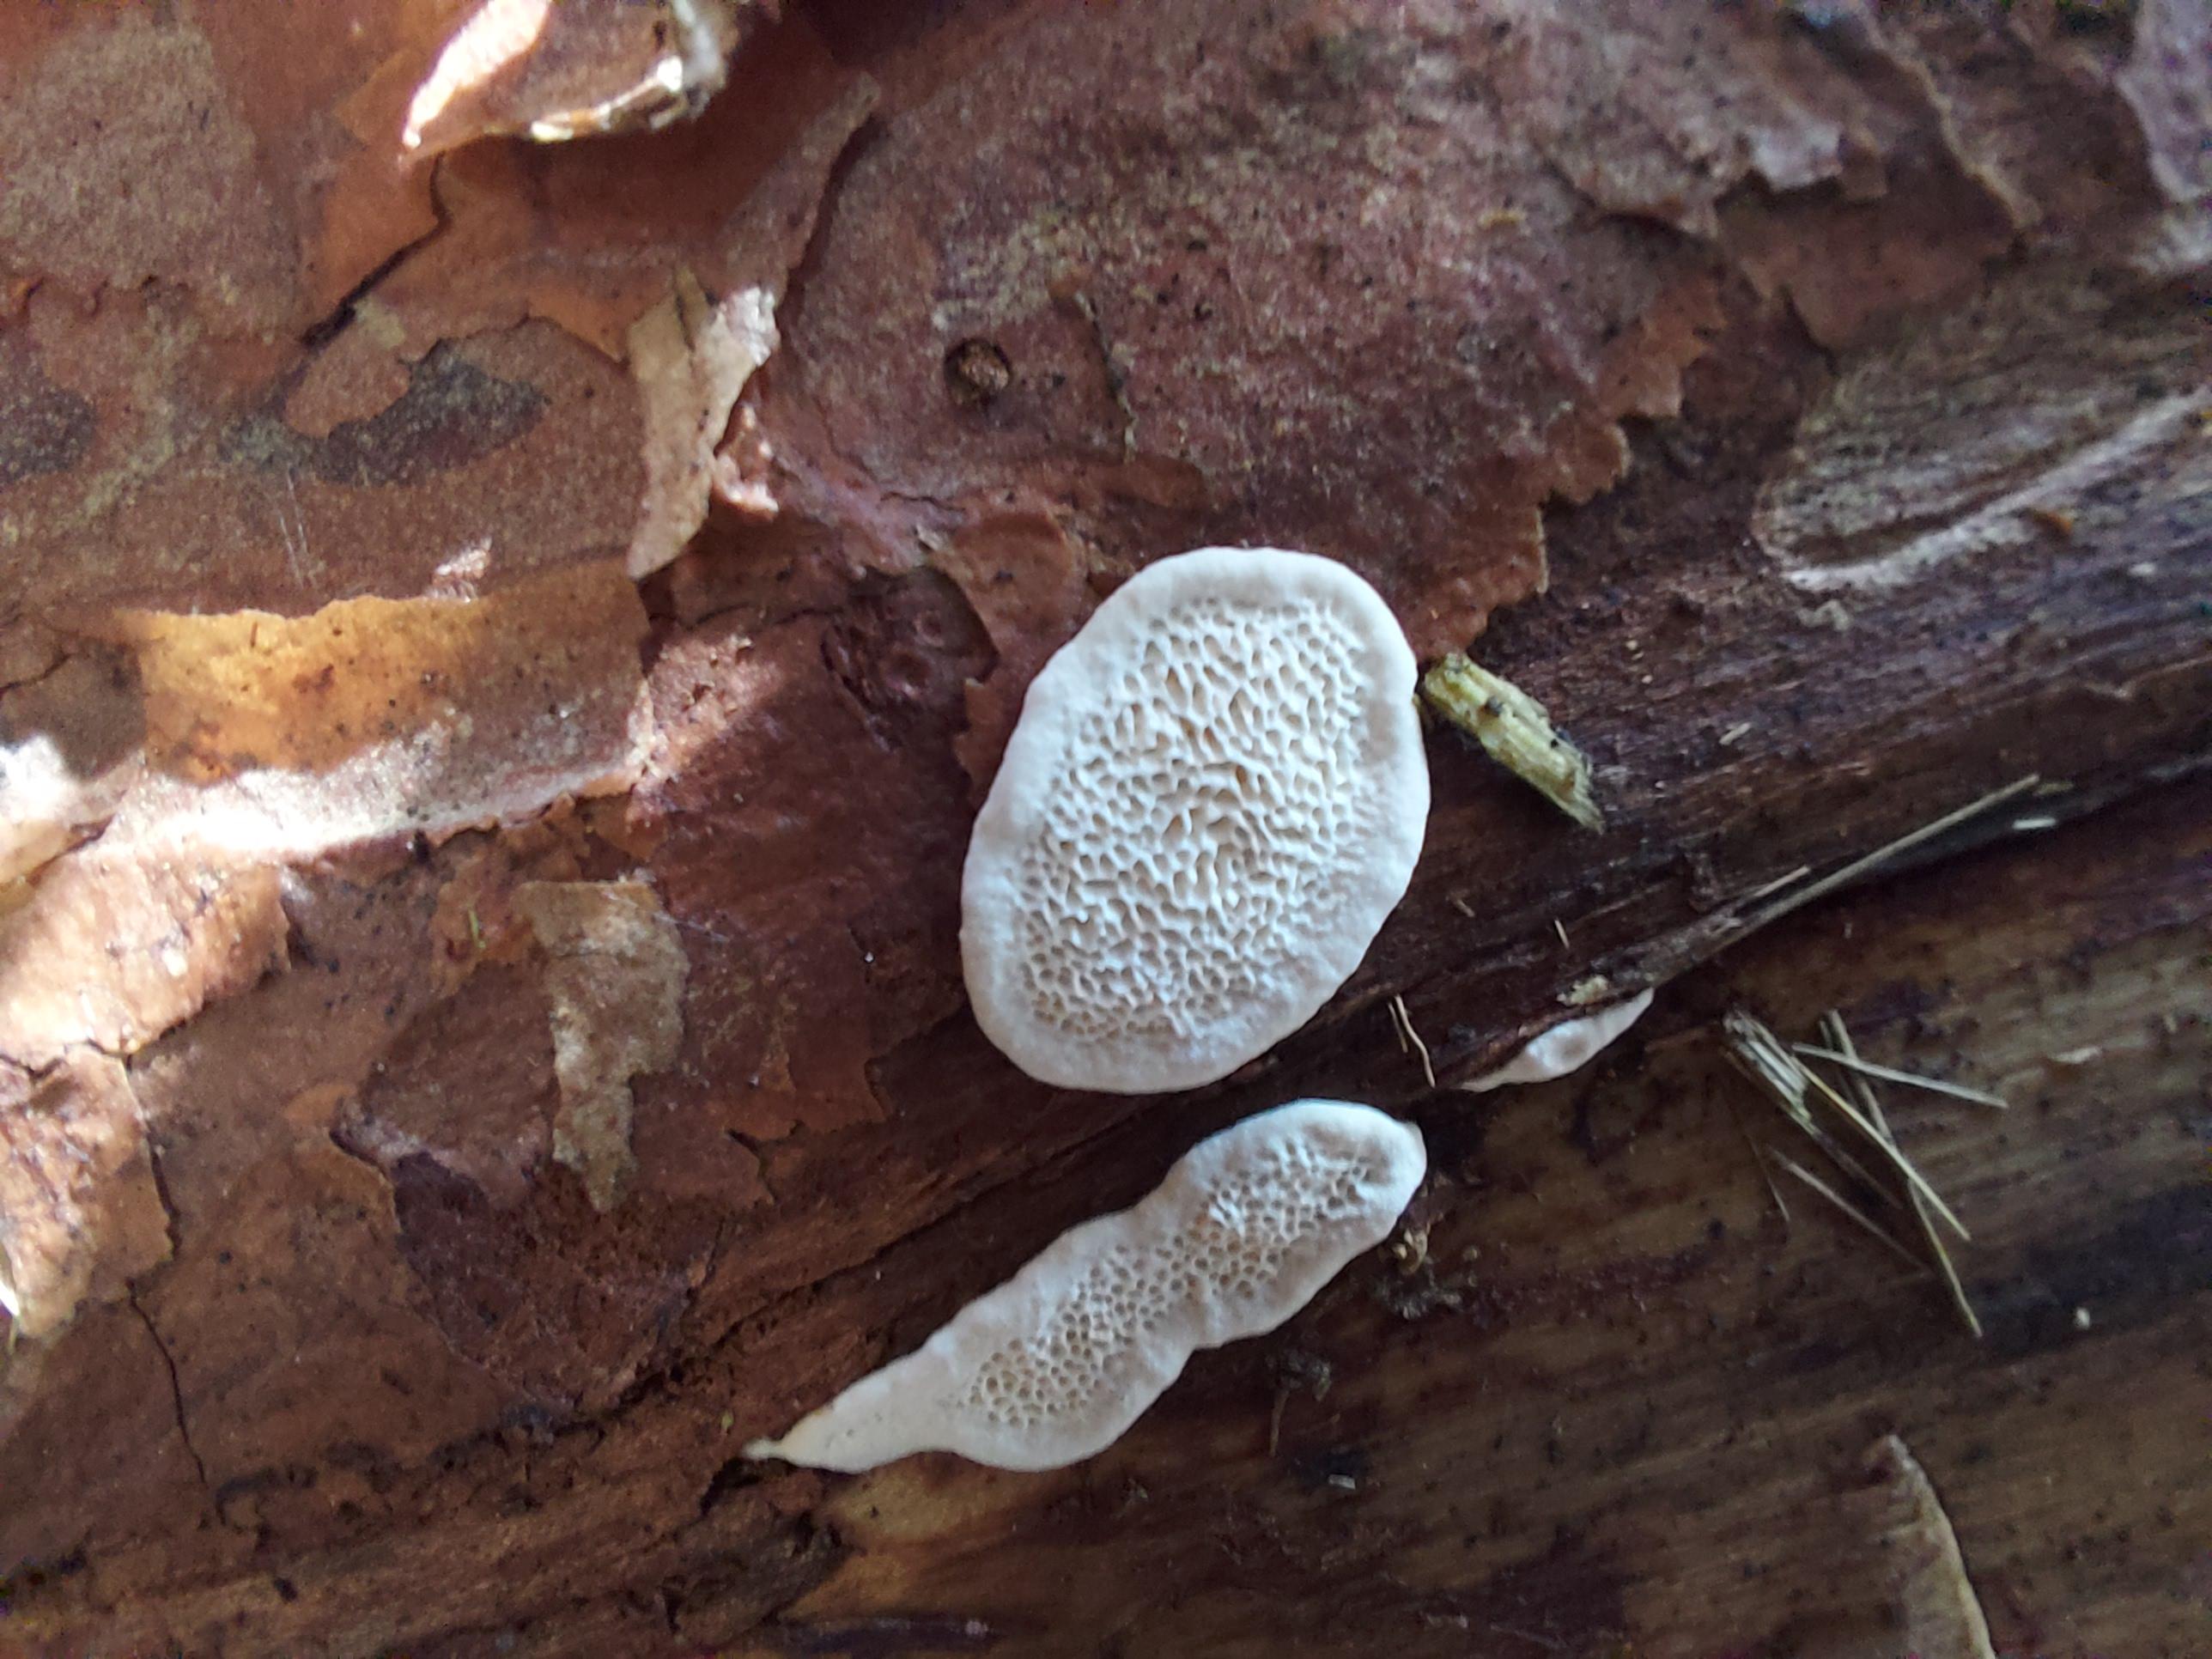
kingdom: Fungi
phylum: Basidiomycota
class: Agaricomycetes
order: Polyporales
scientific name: Polyporales
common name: poresvampordenen
